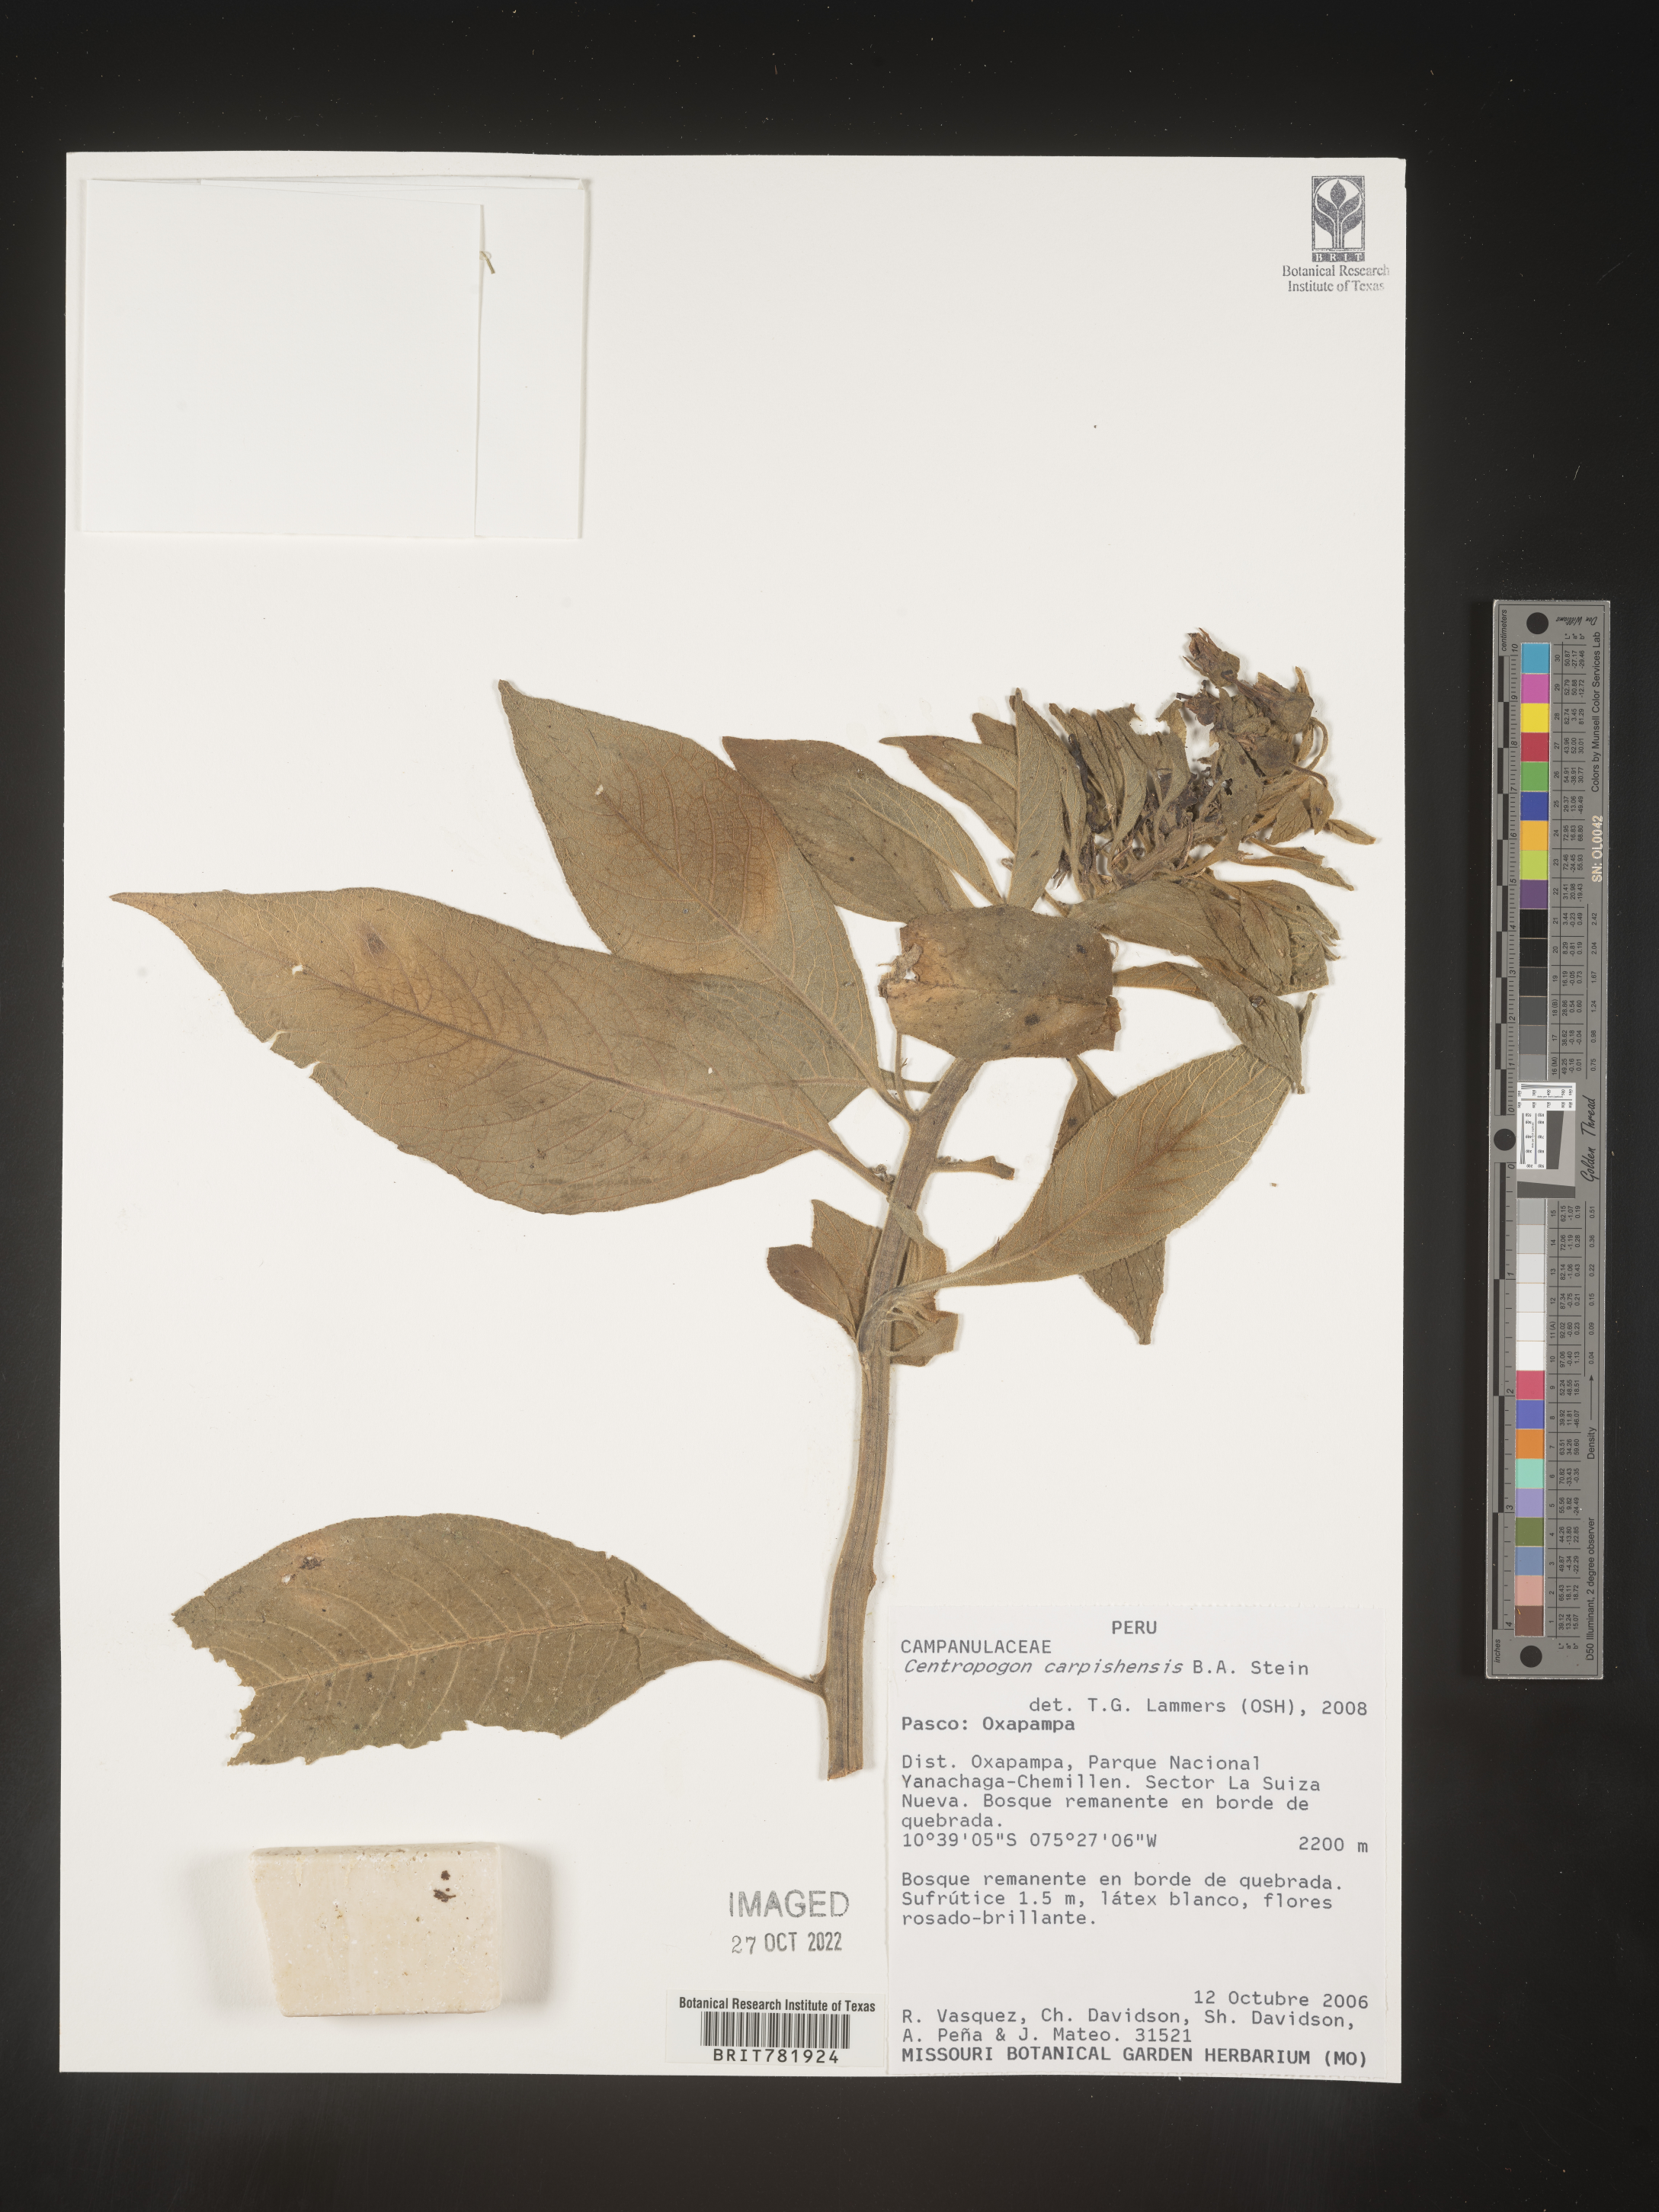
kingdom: Plantae
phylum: Tracheophyta
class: Magnoliopsida
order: Asterales
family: Campanulaceae
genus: Centropogon
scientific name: Centropogon
